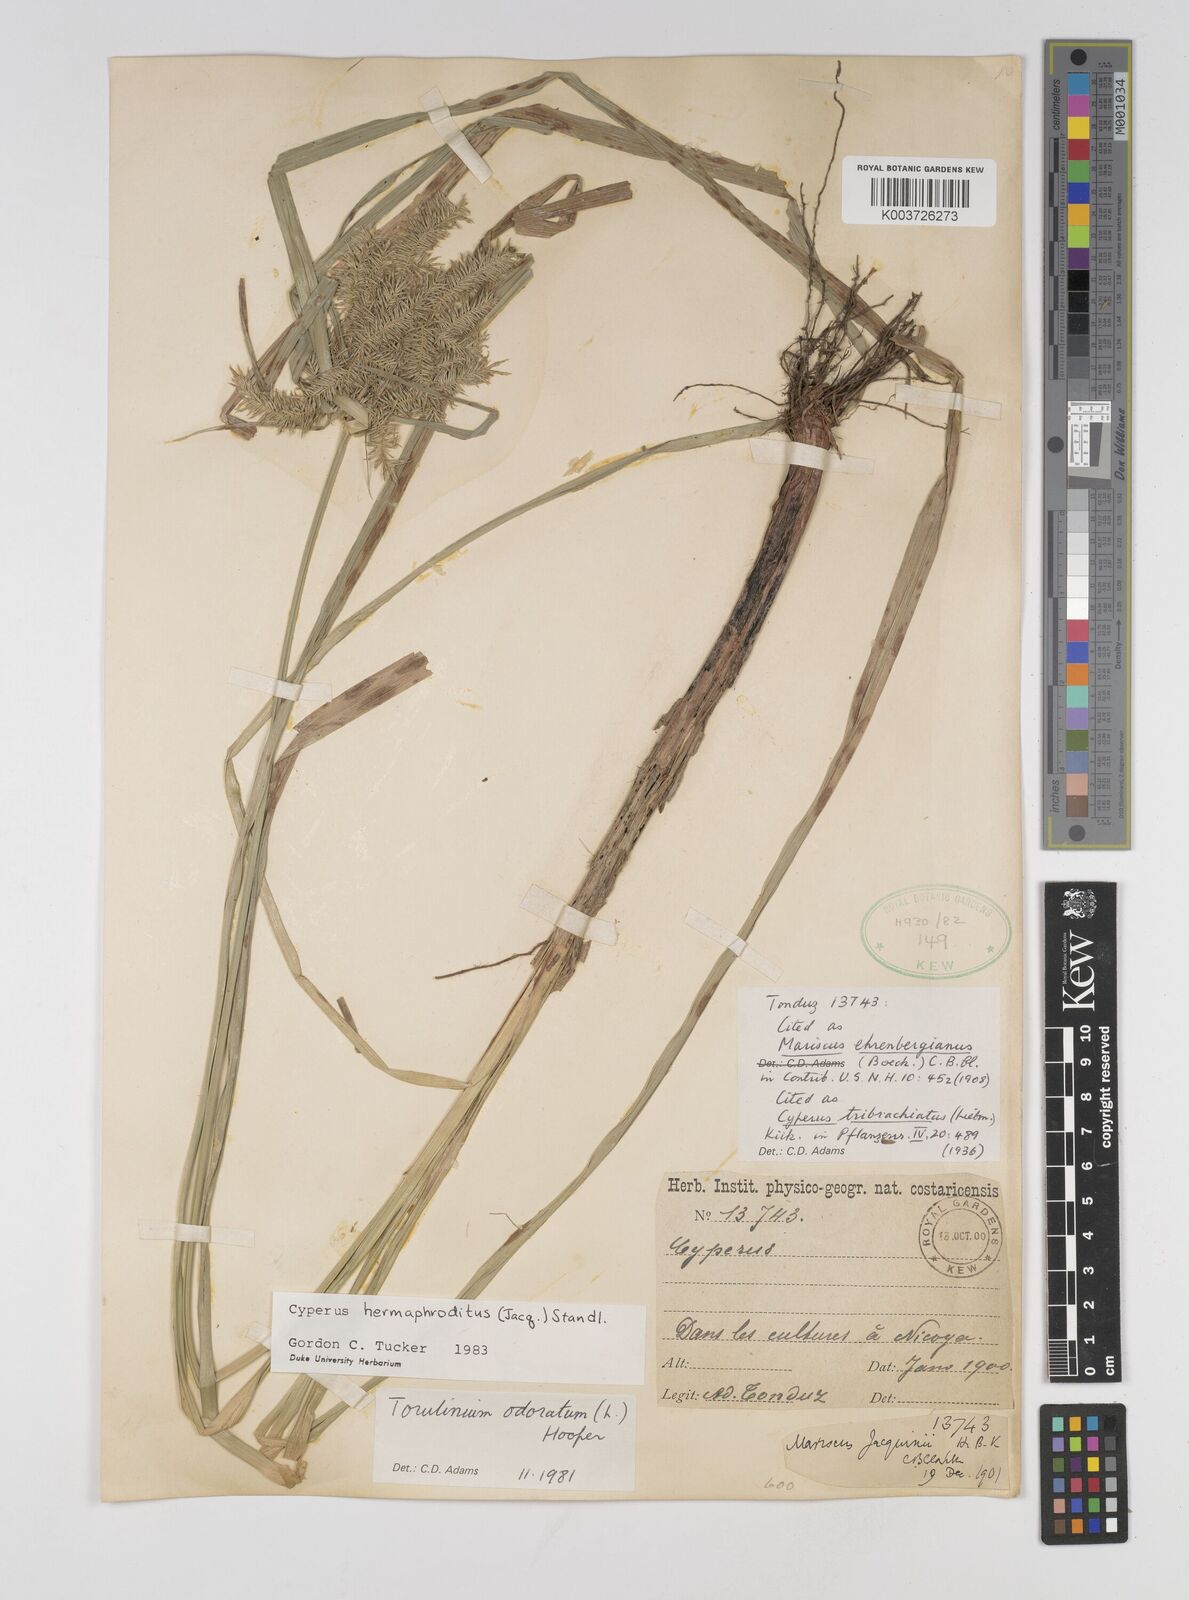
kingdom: Plantae
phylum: Tracheophyta
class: Liliopsida
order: Poales
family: Cyperaceae
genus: Cyperus
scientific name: Cyperus hermaphroditus
